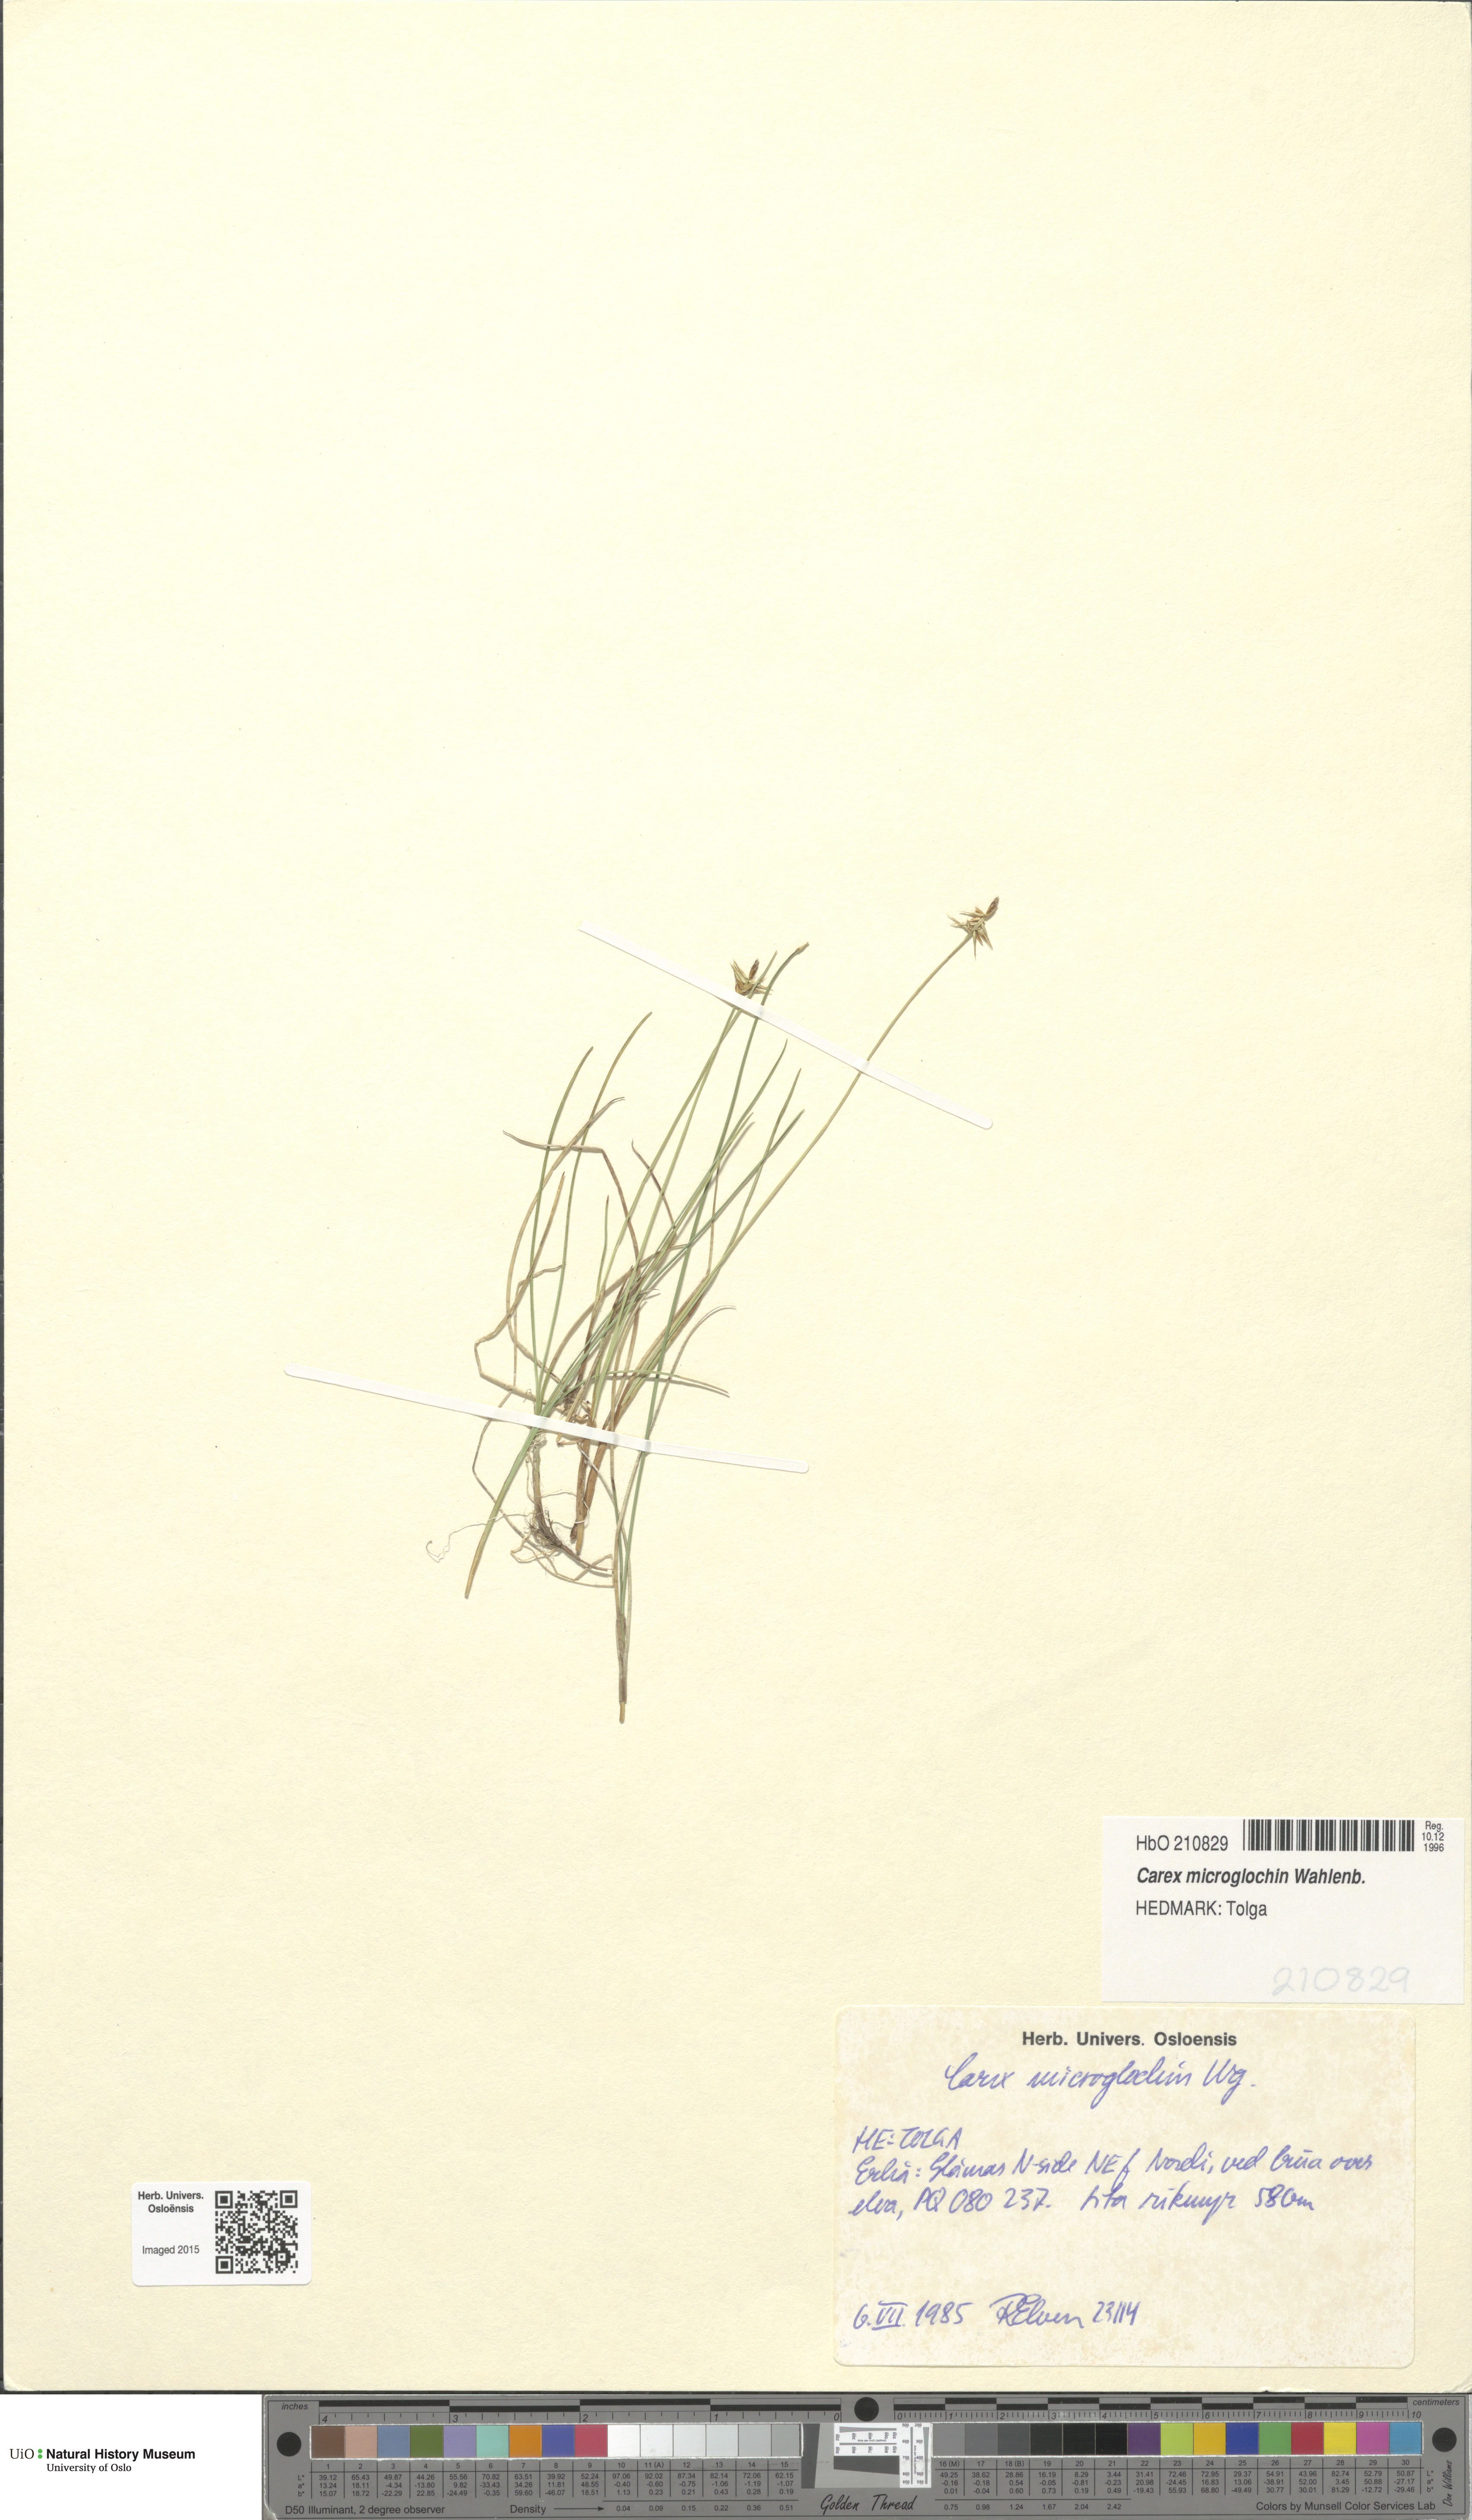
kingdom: Plantae
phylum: Tracheophyta
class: Liliopsida
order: Poales
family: Cyperaceae
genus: Carex
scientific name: Carex microglochin
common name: Bristle sedge
